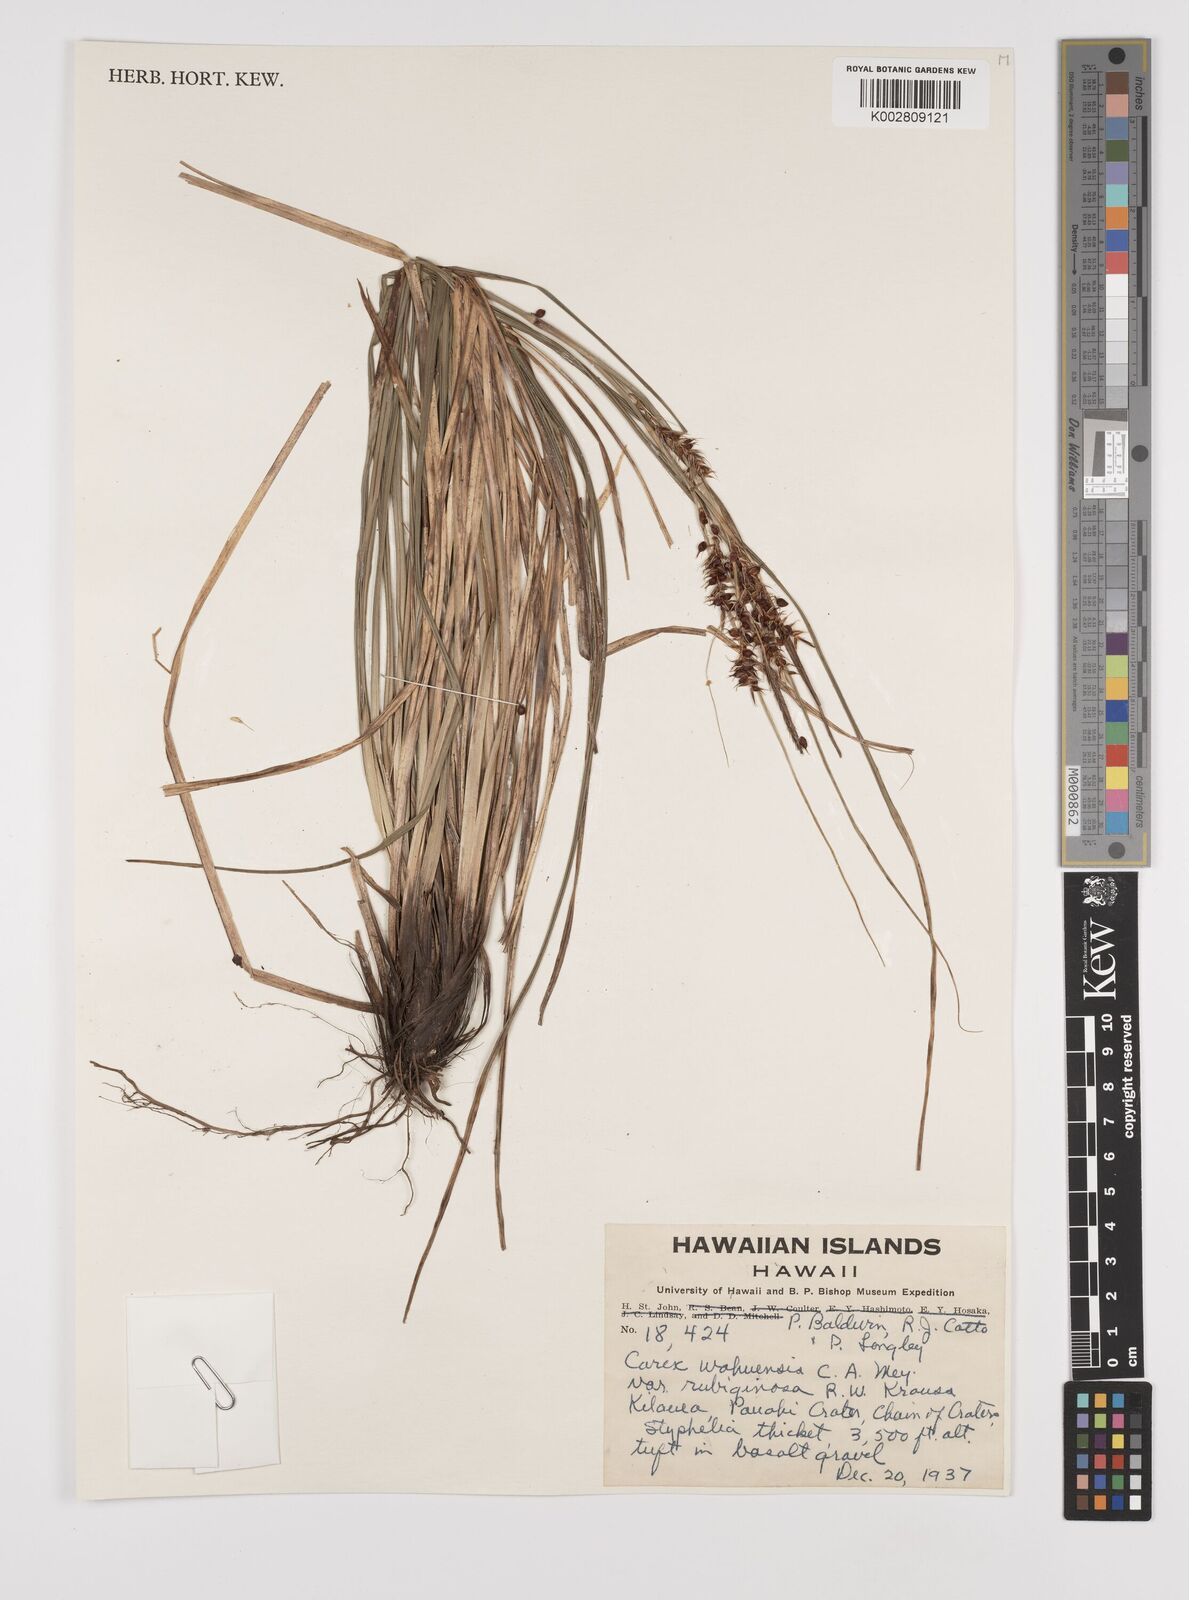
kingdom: Plantae
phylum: Tracheophyta
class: Liliopsida
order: Poales
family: Cyperaceae
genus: Carex
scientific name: Carex wahuensis
